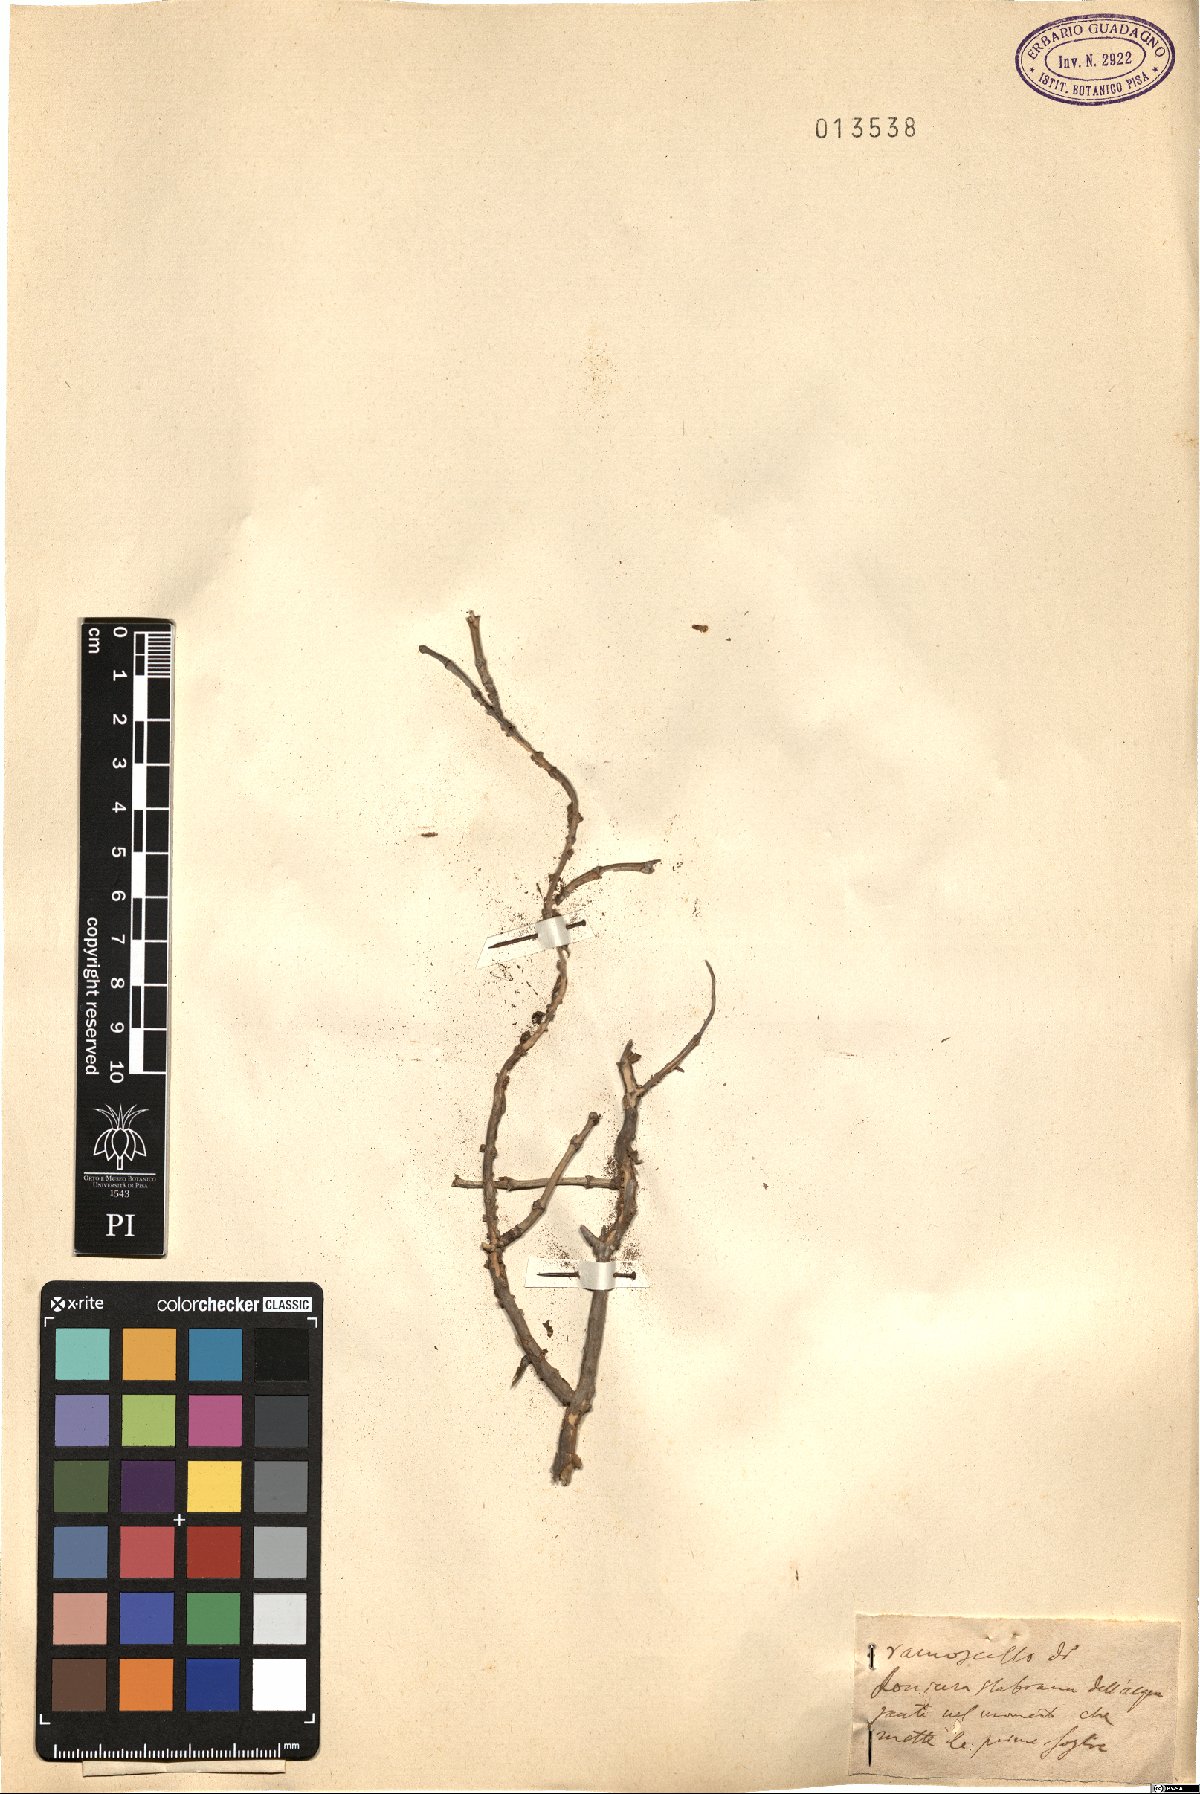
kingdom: Plantae
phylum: Tracheophyta
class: Magnoliopsida
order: Dipsacales
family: Caprifoliaceae
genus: Lonicera
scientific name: Lonicera stabiana
